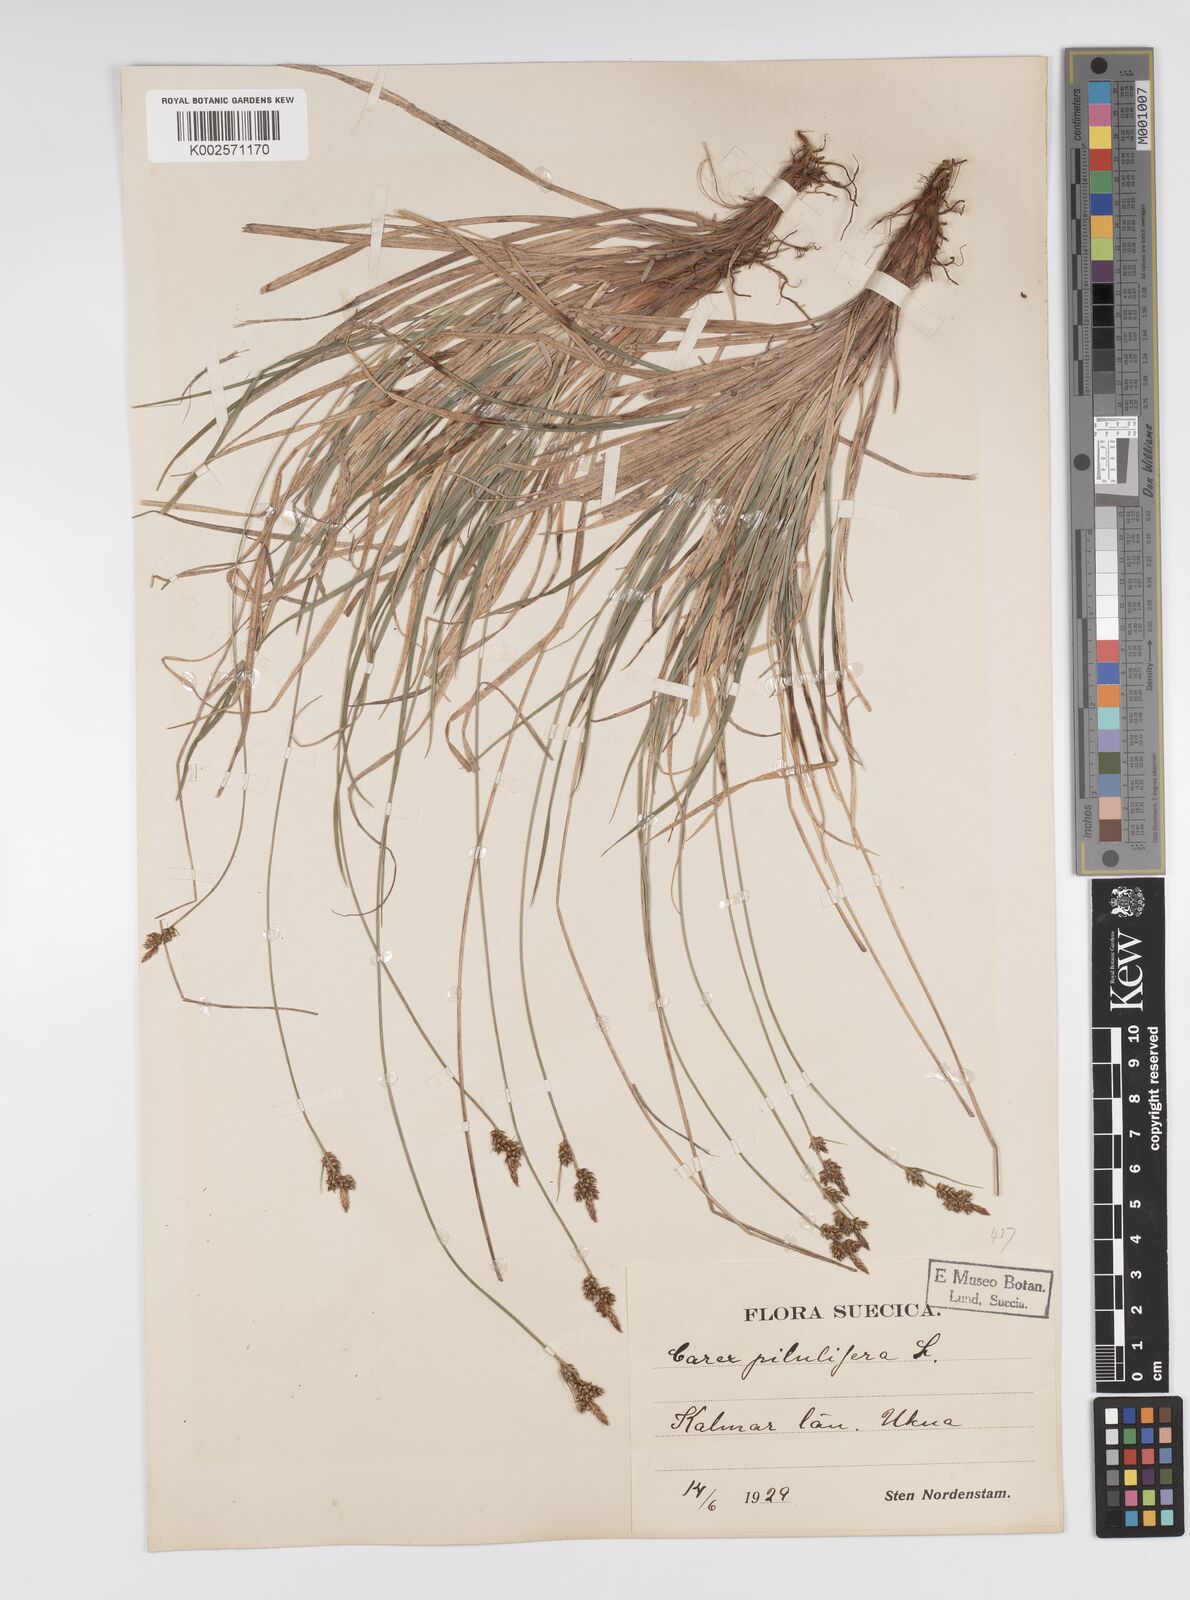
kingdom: Plantae
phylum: Tracheophyta
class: Liliopsida
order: Poales
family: Cyperaceae
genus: Carex
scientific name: Carex pilulifera
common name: Pill sedge
